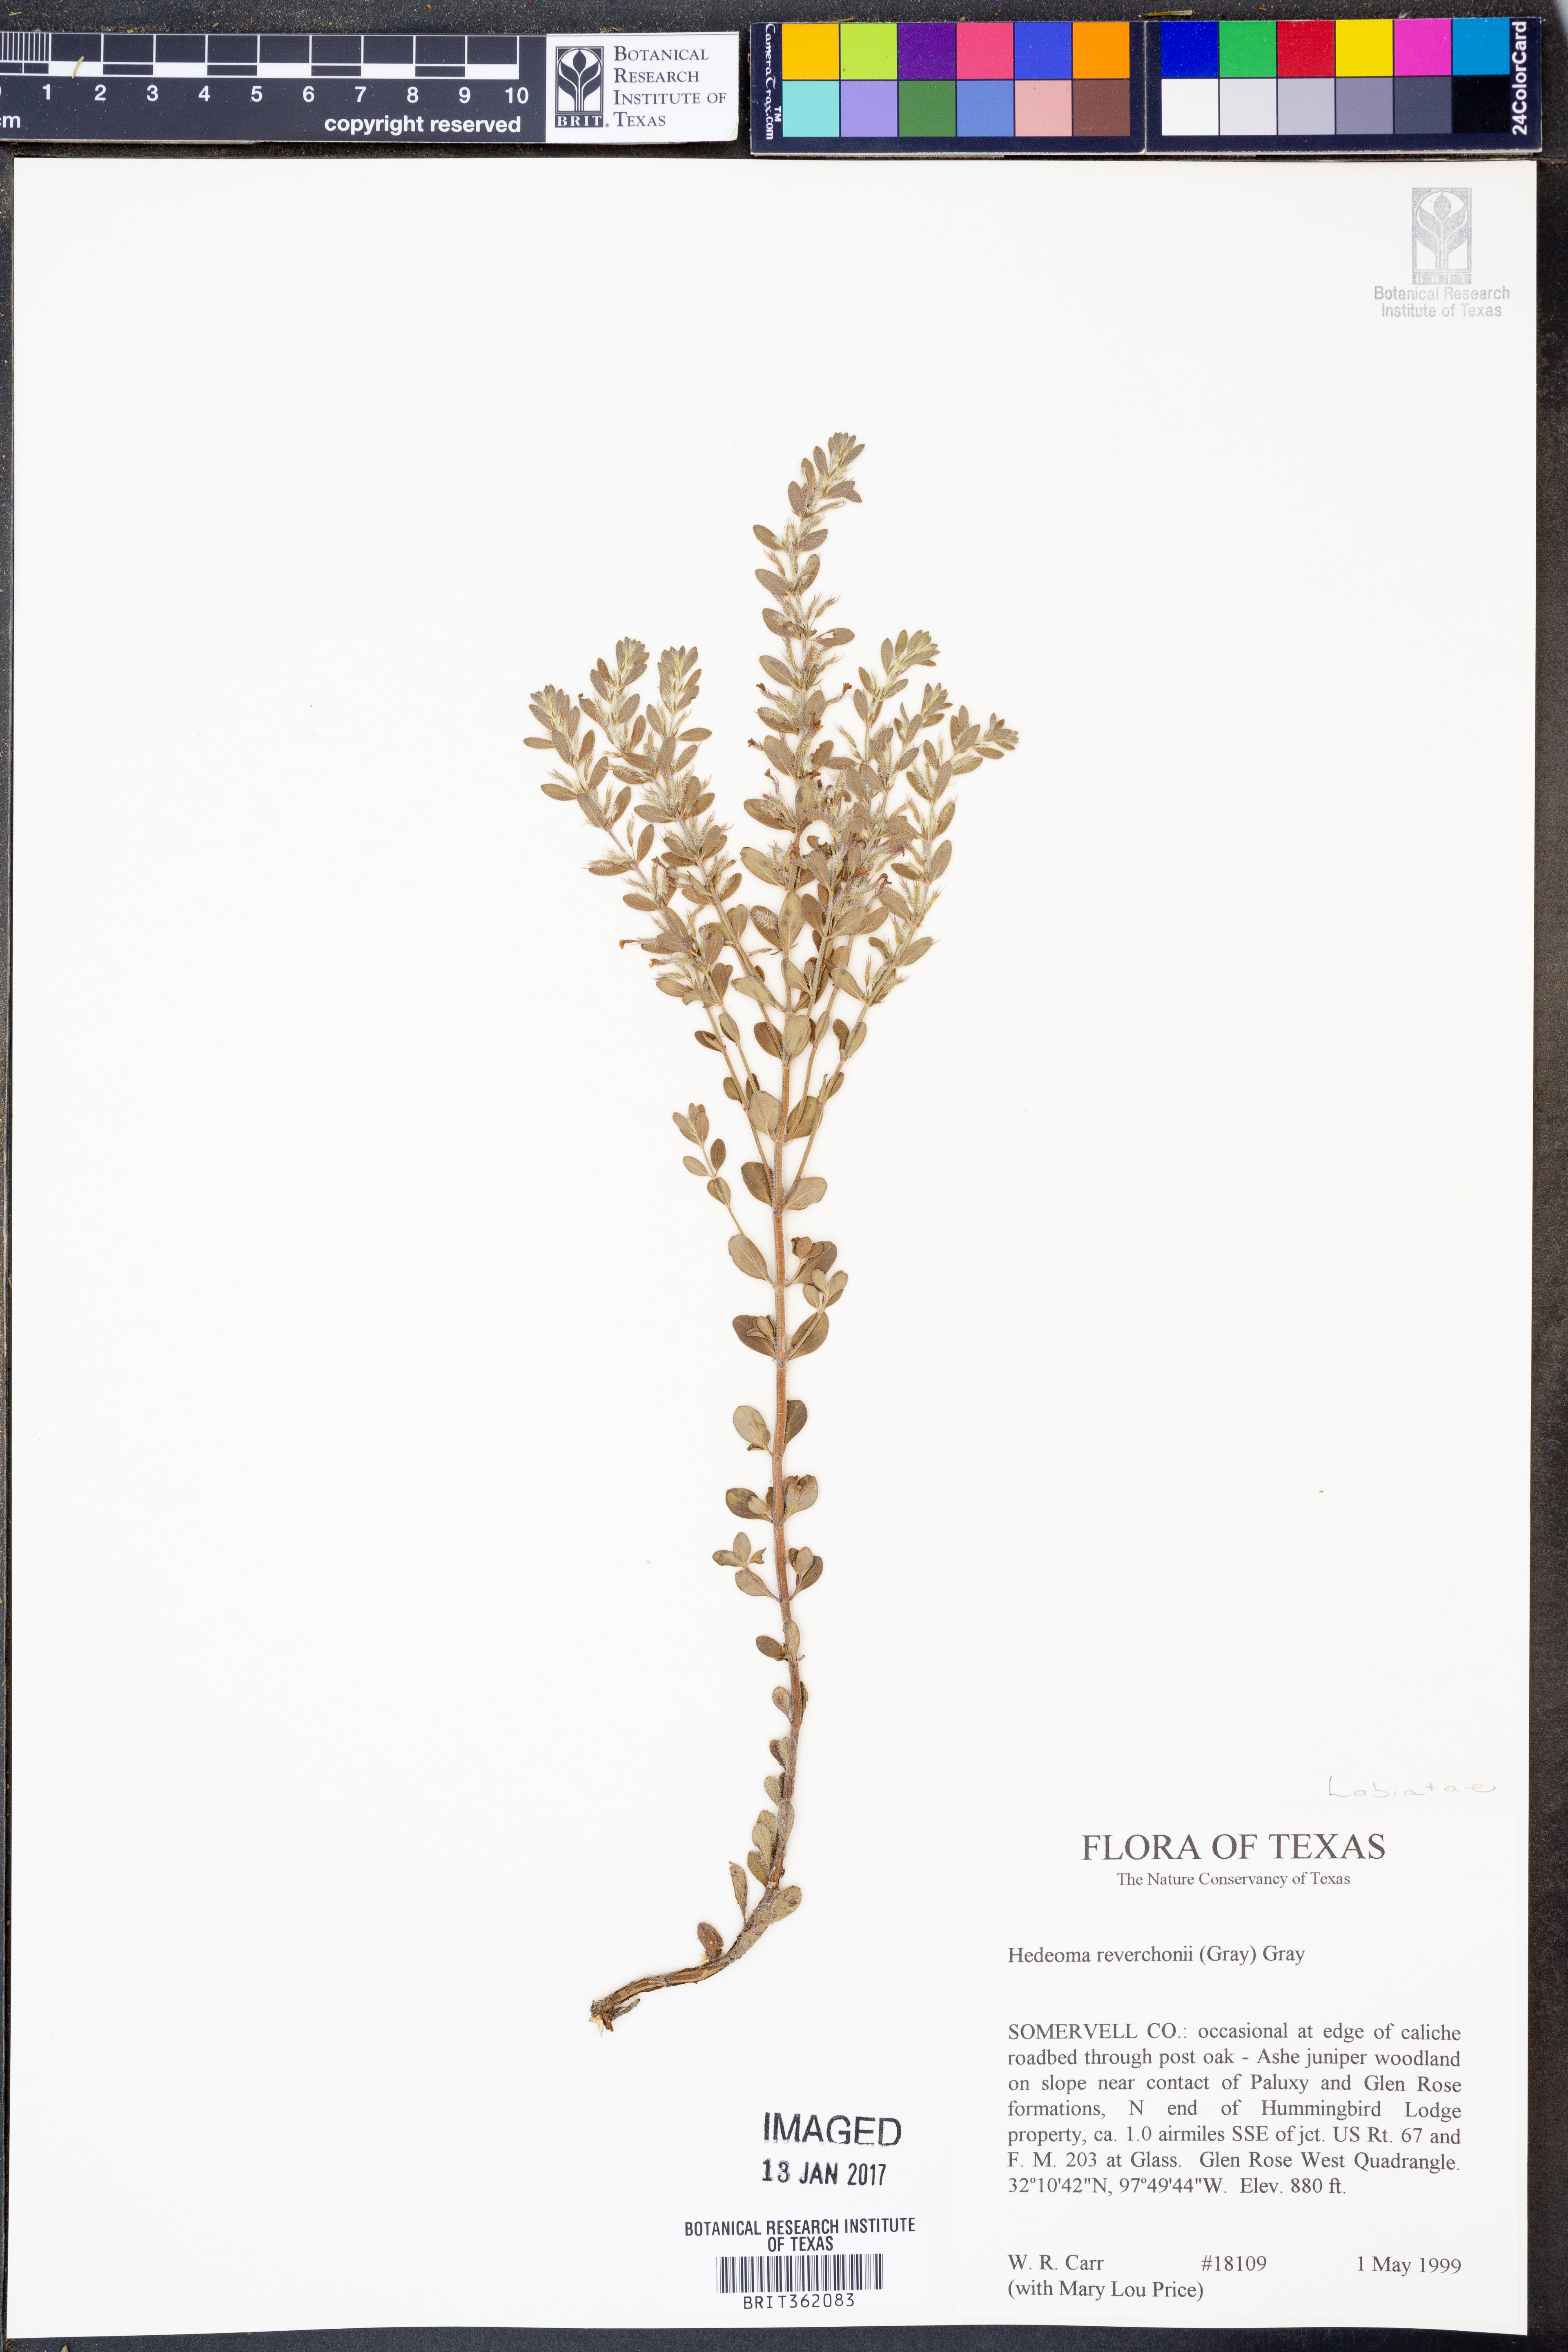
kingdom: Plantae
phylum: Tracheophyta
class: Magnoliopsida
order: Lamiales
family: Lamiaceae
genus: Hedeoma
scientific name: Hedeoma reverchonii
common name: Reverchon's false penny-royal
